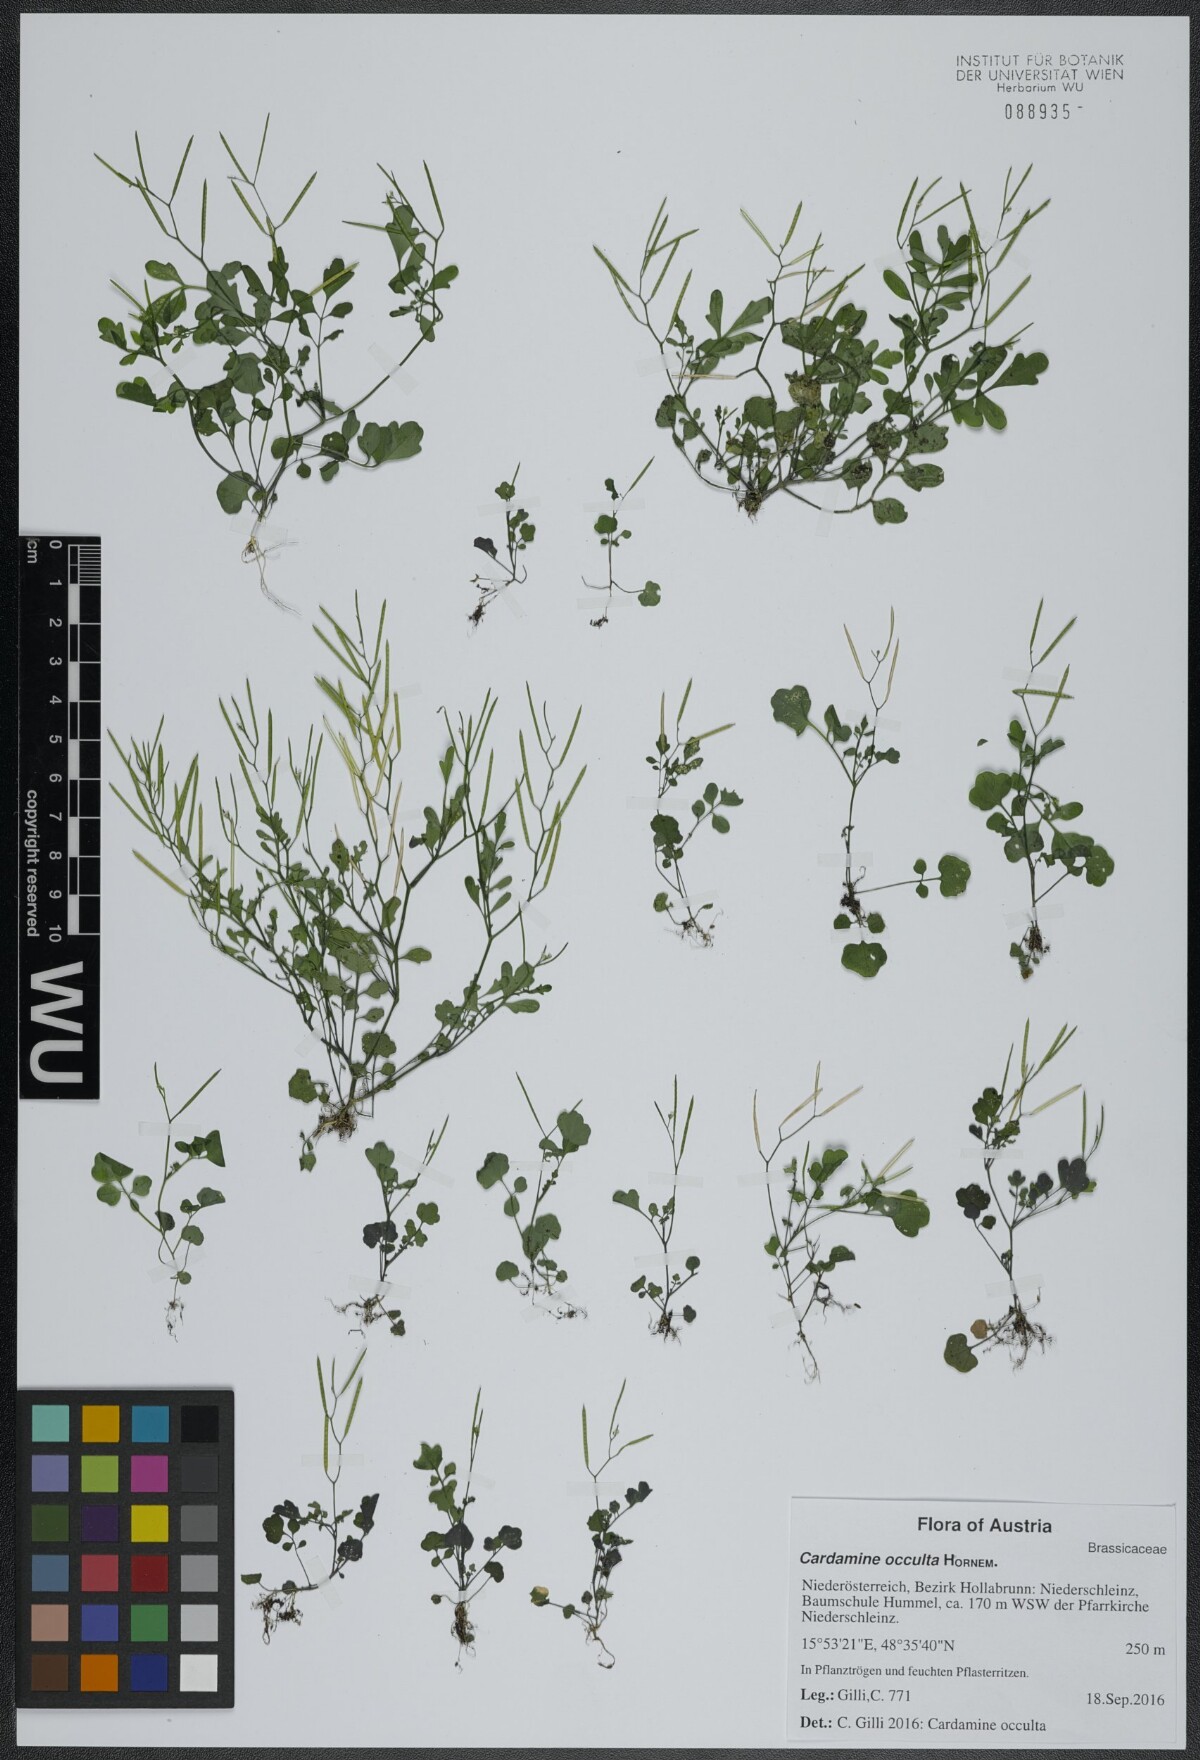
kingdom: Plantae
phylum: Tracheophyta
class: Magnoliopsida
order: Brassicales
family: Brassicaceae
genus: Cardamine
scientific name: Cardamine occulta
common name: Asian wavy bittercress
